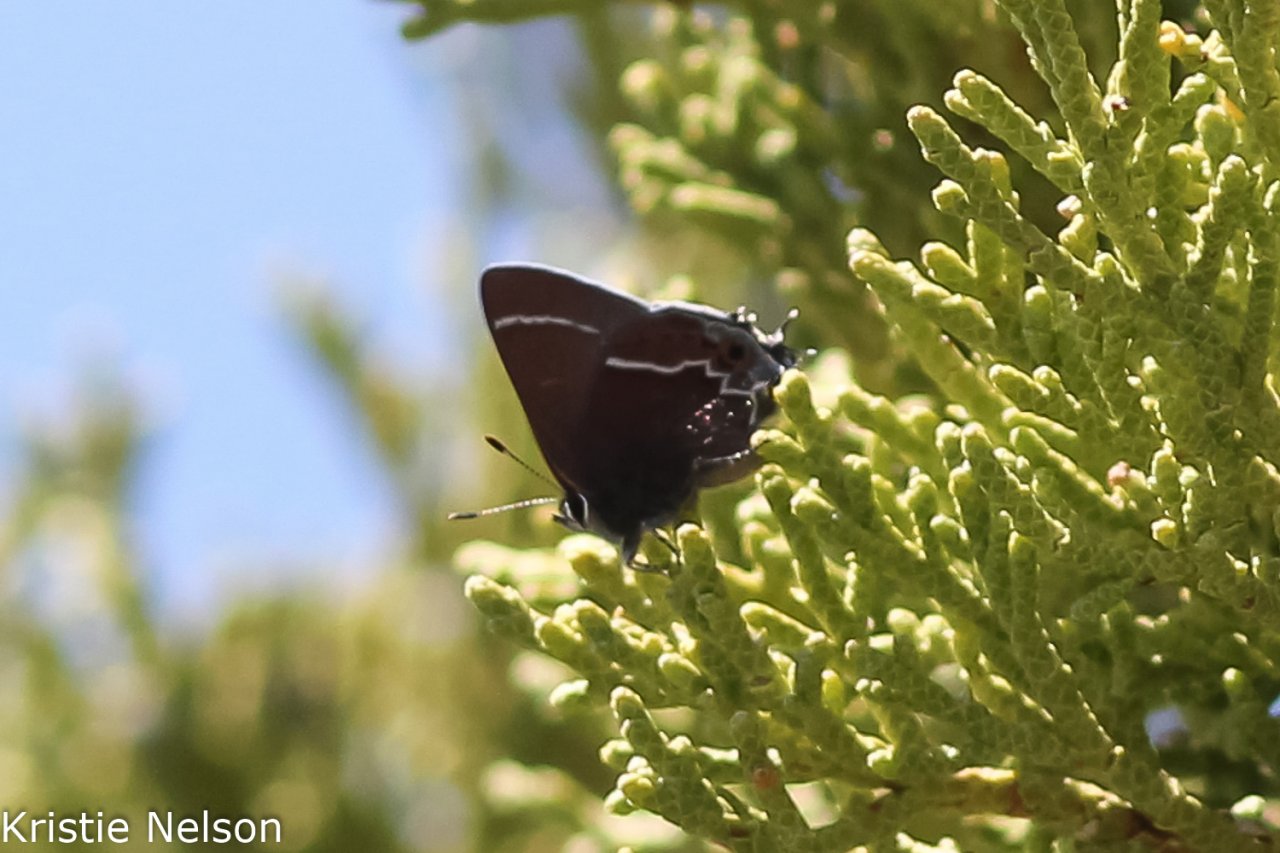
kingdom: Animalia
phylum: Arthropoda
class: Insecta
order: Lepidoptera
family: Lycaenidae
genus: Mitoura
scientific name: Mitoura spinetorum
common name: Thicket Hairstreak
